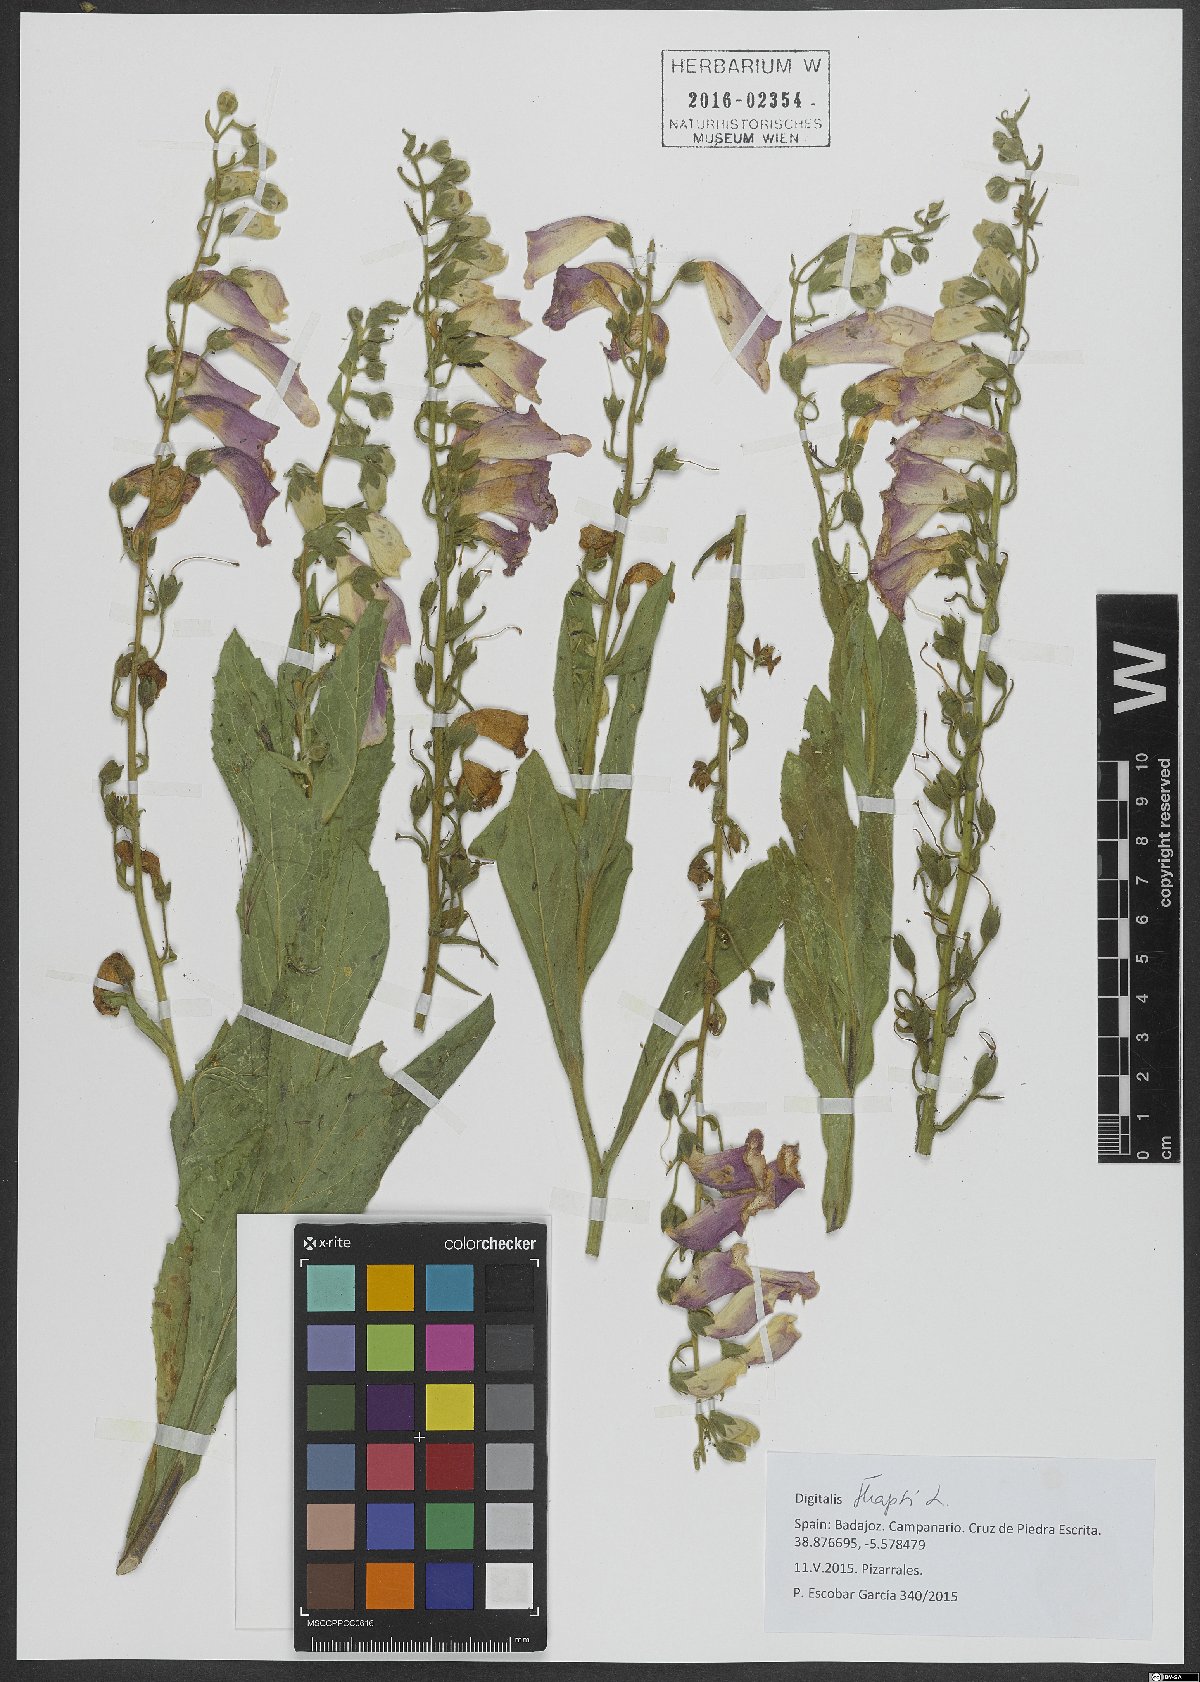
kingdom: Plantae
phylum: Tracheophyta
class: Magnoliopsida
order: Lamiales
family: Plantaginaceae
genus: Digitalis
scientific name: Digitalis thapsi
